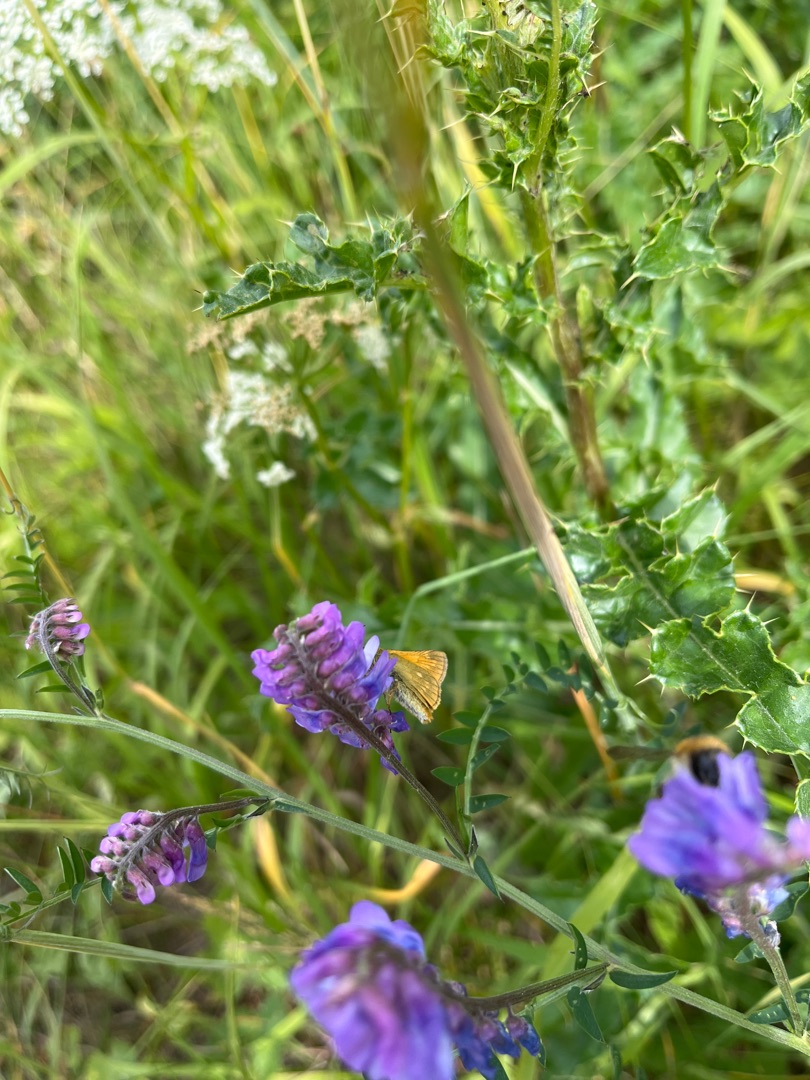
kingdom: Animalia
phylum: Arthropoda
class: Insecta
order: Lepidoptera
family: Hesperiidae
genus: Ochlodes
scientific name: Ochlodes venata
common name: Stor bredpande
